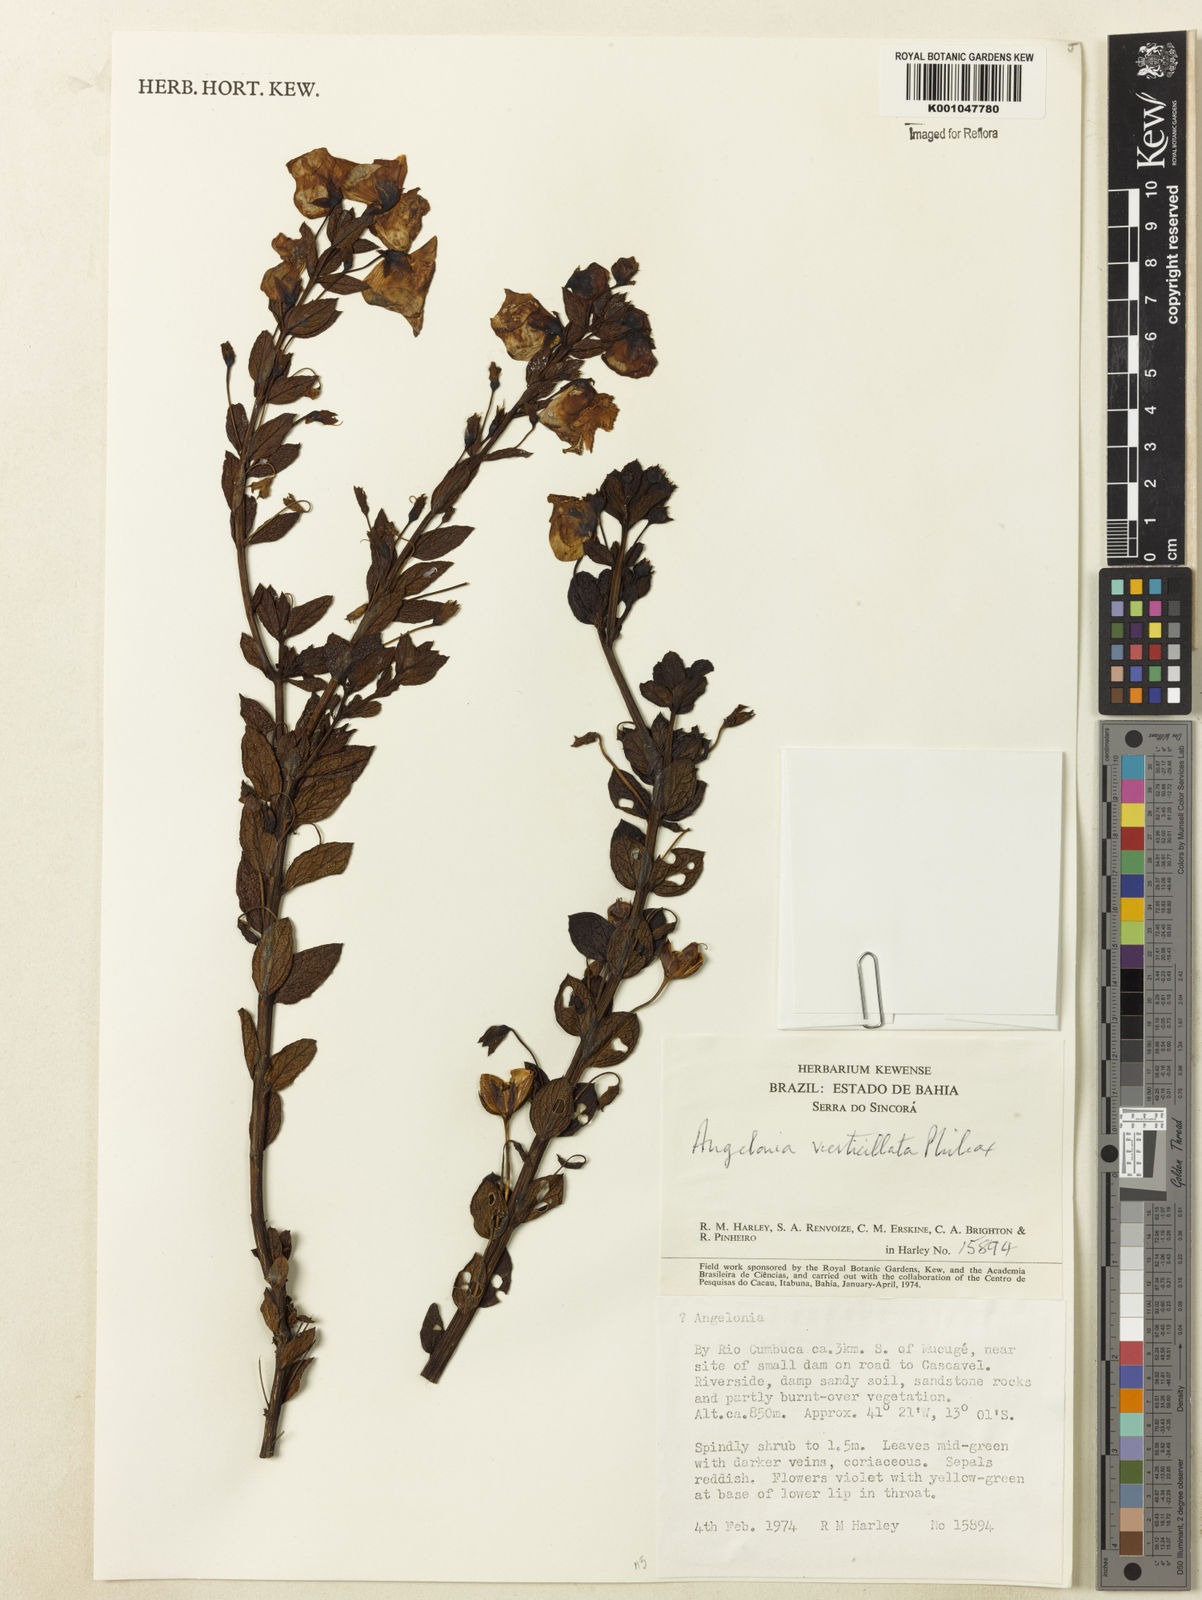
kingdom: Plantae
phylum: Tracheophyta
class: Magnoliopsida
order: Lamiales
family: Plantaginaceae
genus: Angelonia
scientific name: Angelonia verticillata
